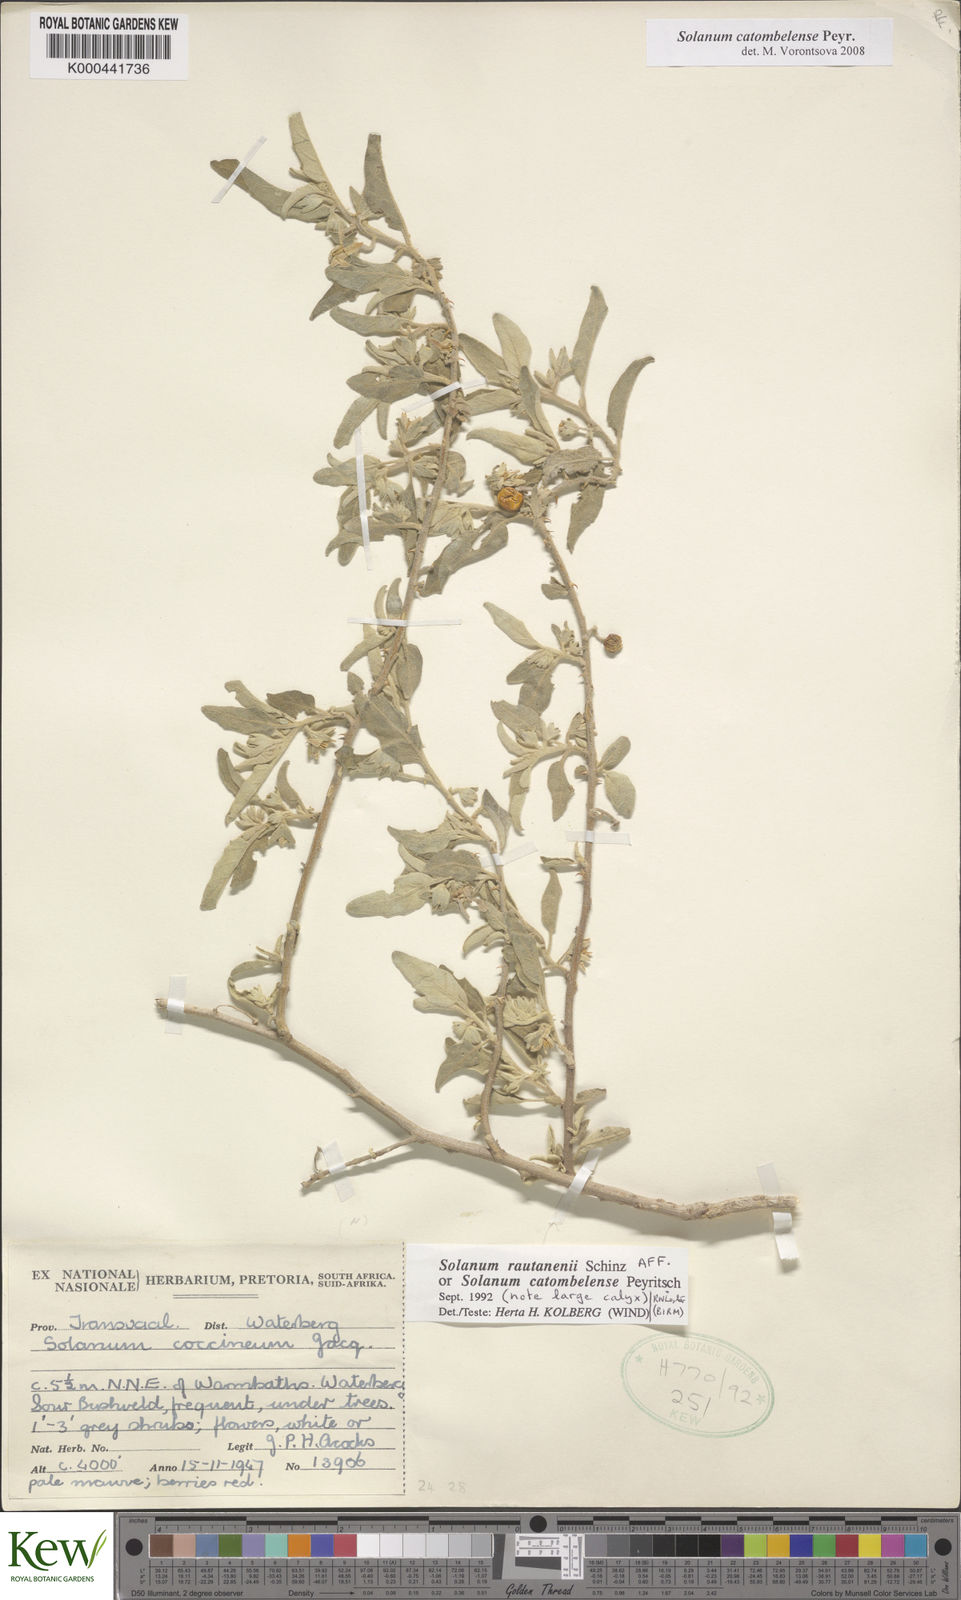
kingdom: Plantae
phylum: Tracheophyta
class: Magnoliopsida
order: Solanales
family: Solanaceae
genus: Solanum
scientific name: Solanum catombelense
